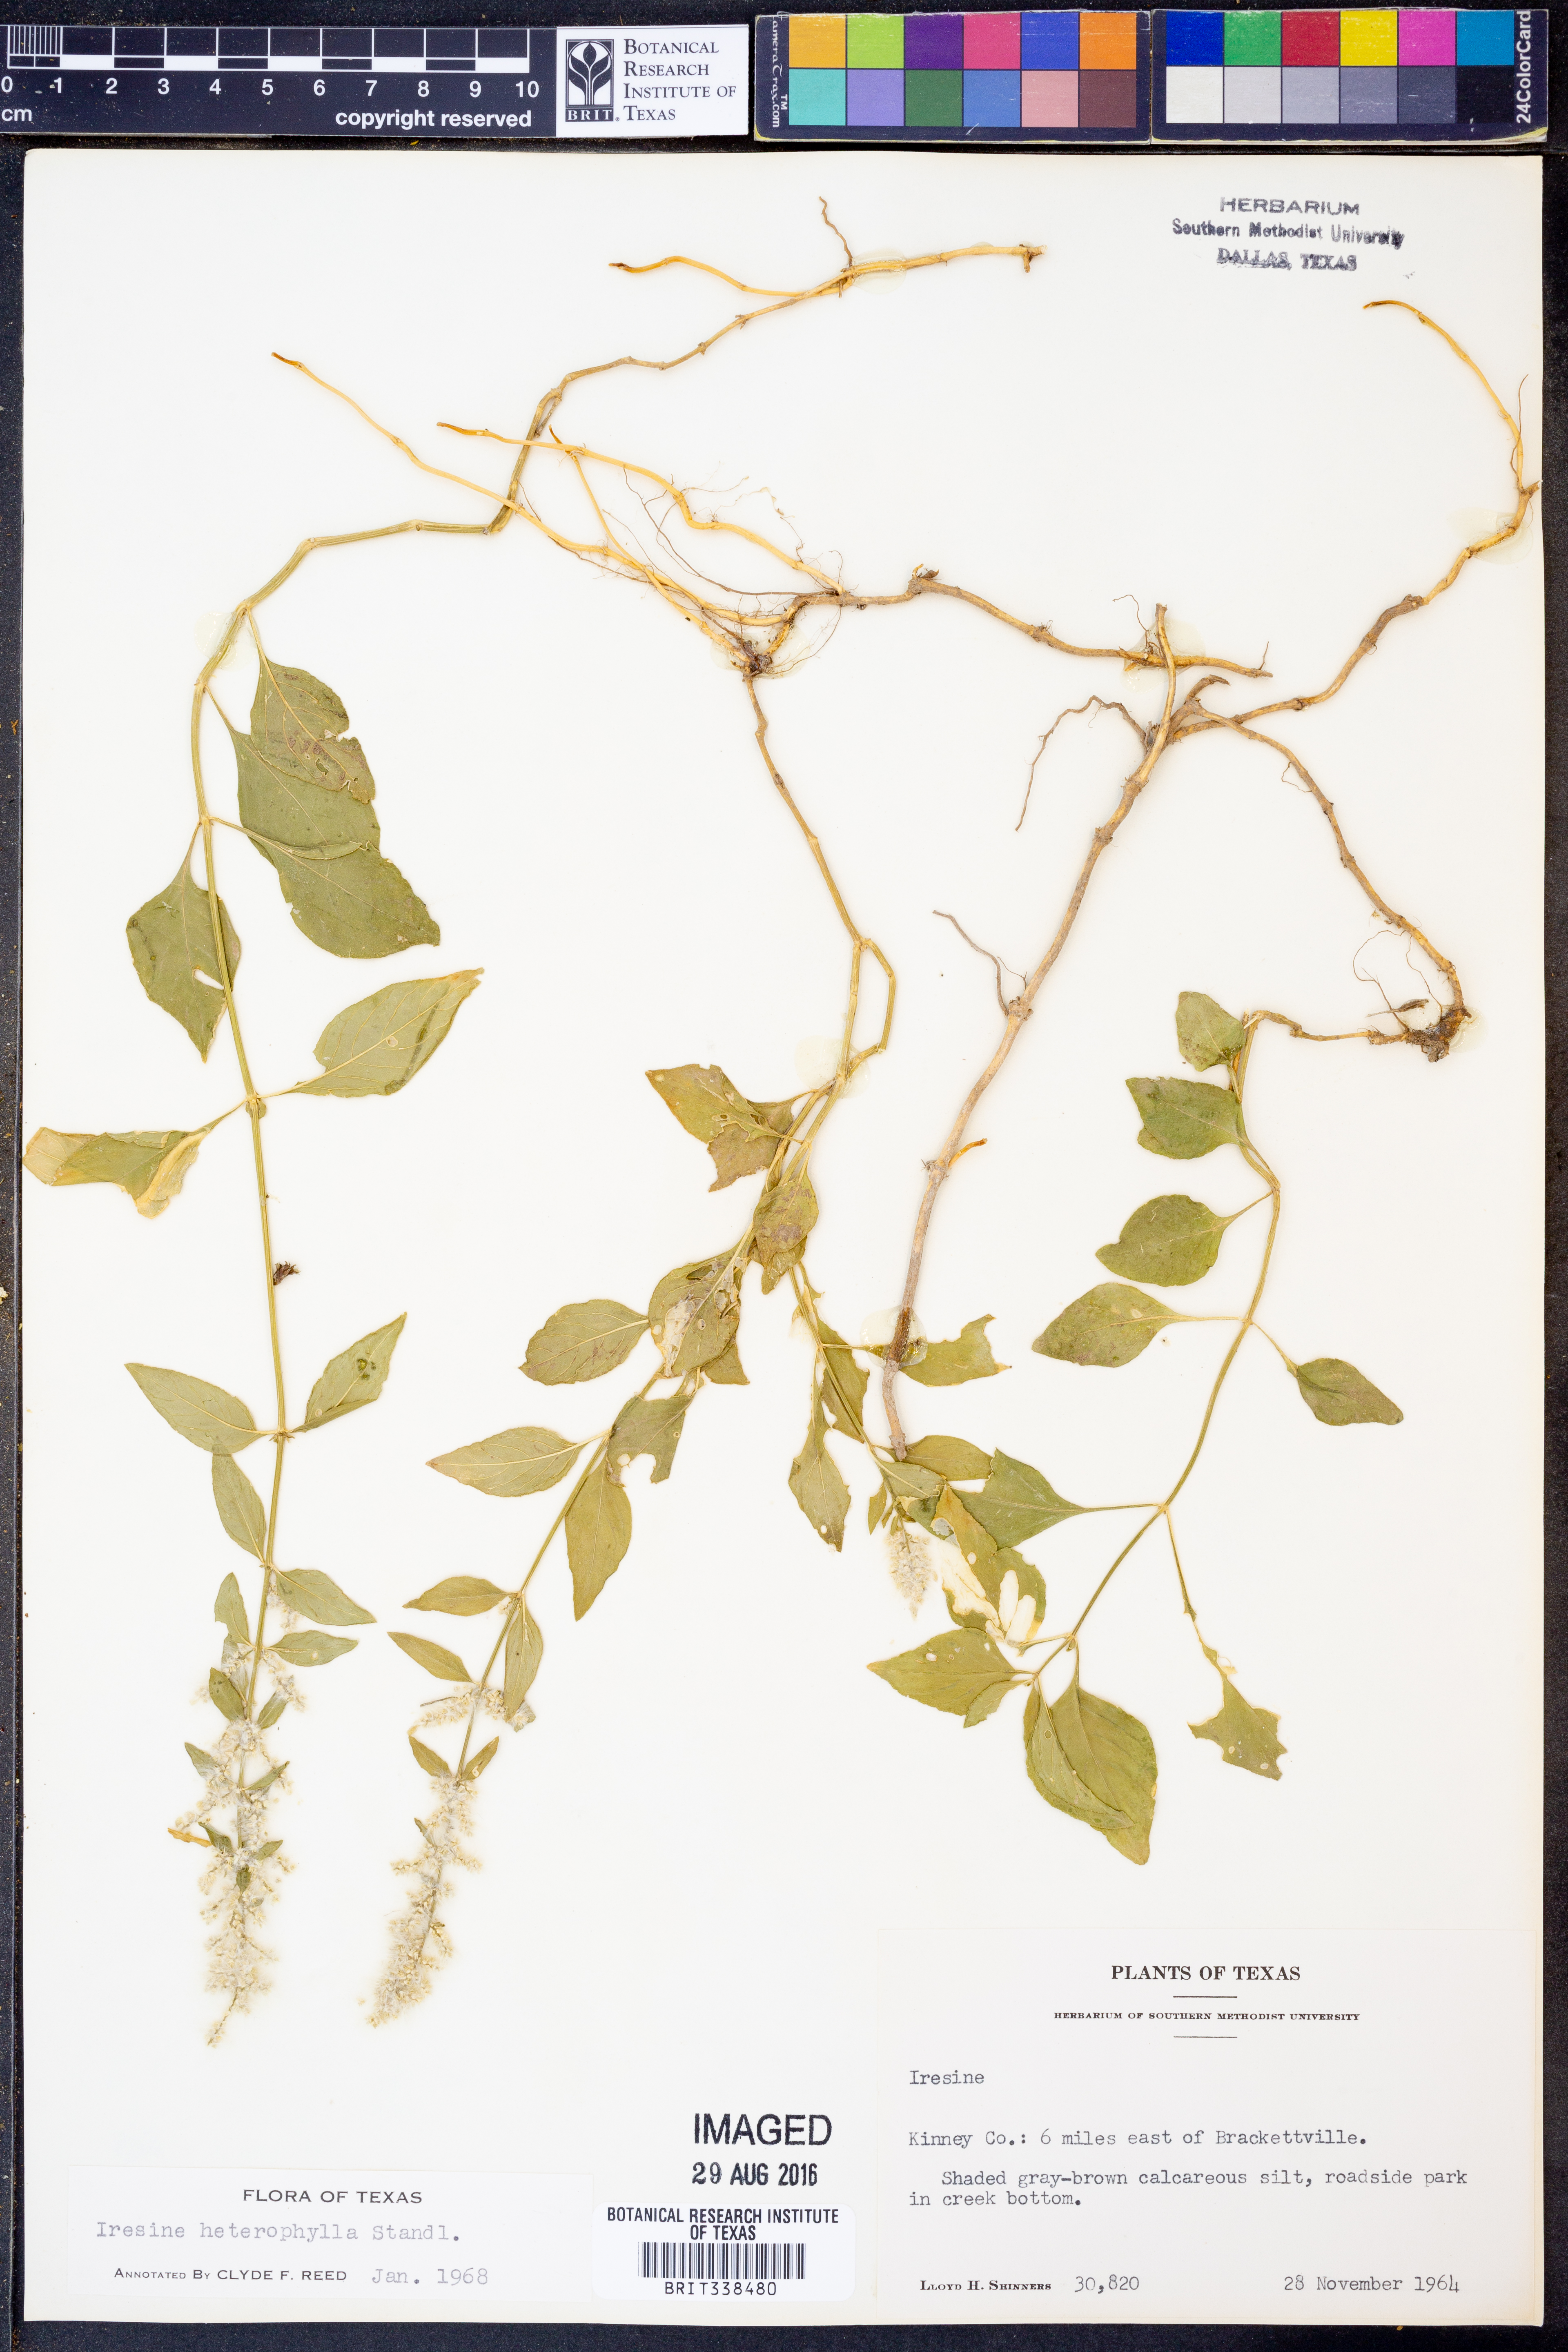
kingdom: Plantae
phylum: Tracheophyta
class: Magnoliopsida
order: Caryophyllales
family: Amaranthaceae
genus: Iresine
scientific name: Iresine heterophylla
